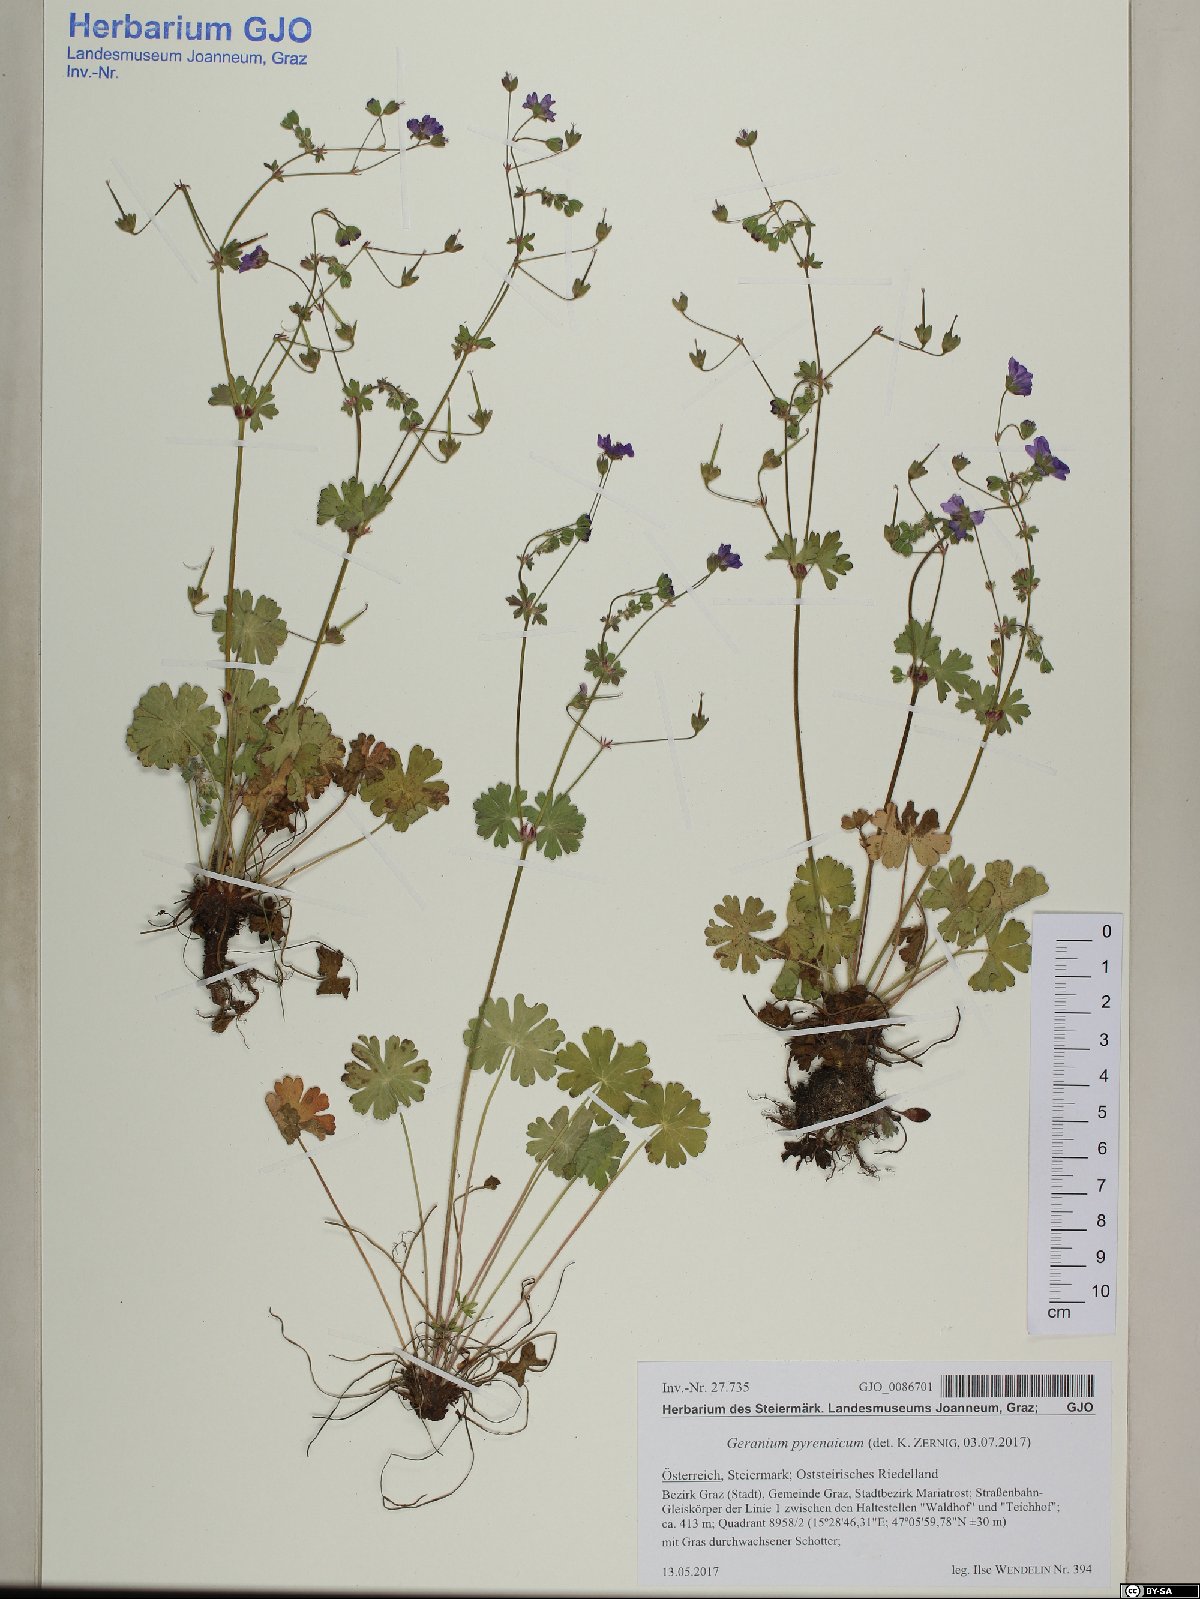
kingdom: Plantae
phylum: Tracheophyta
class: Magnoliopsida
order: Geraniales
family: Geraniaceae
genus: Geranium
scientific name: Geranium pyrenaicum
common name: Hedgerow crane's-bill
